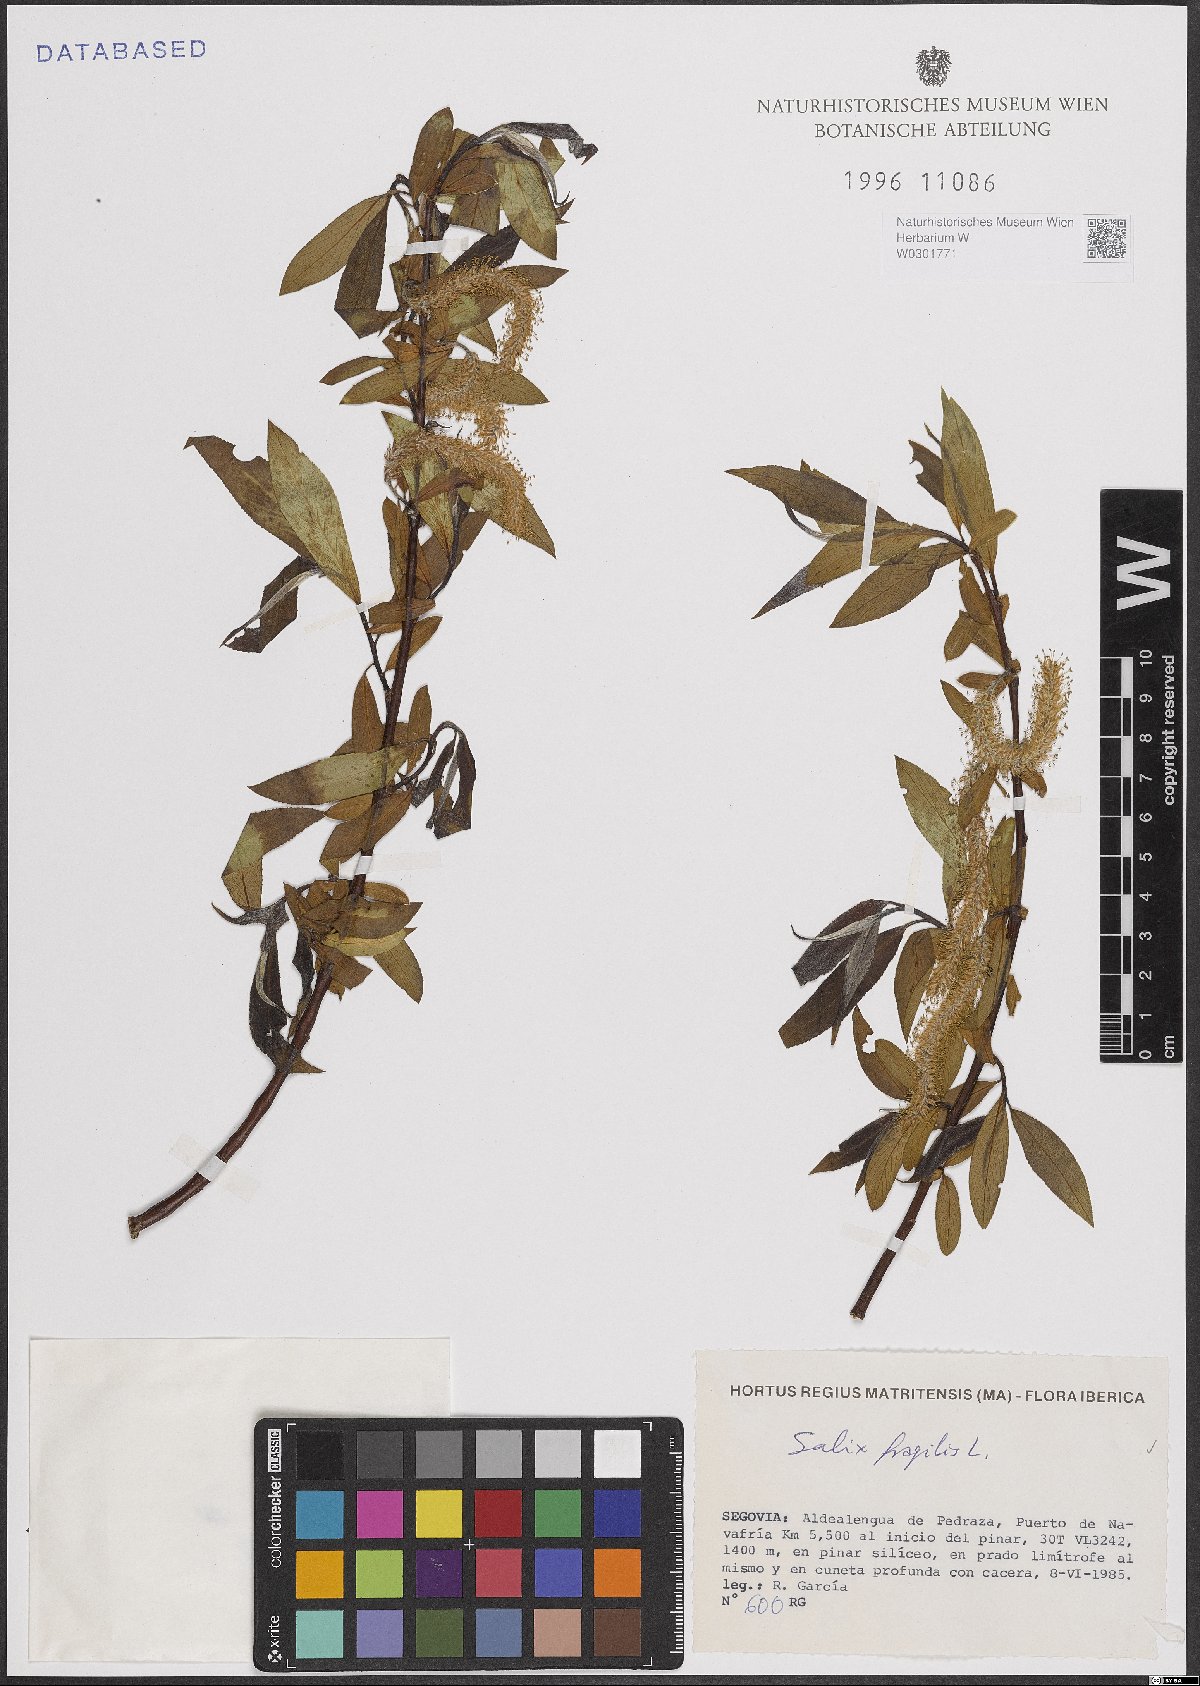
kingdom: Plantae
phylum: Tracheophyta
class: Magnoliopsida
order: Malpighiales
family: Salicaceae
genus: Salix
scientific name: Salix fragilis
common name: Crack willow
